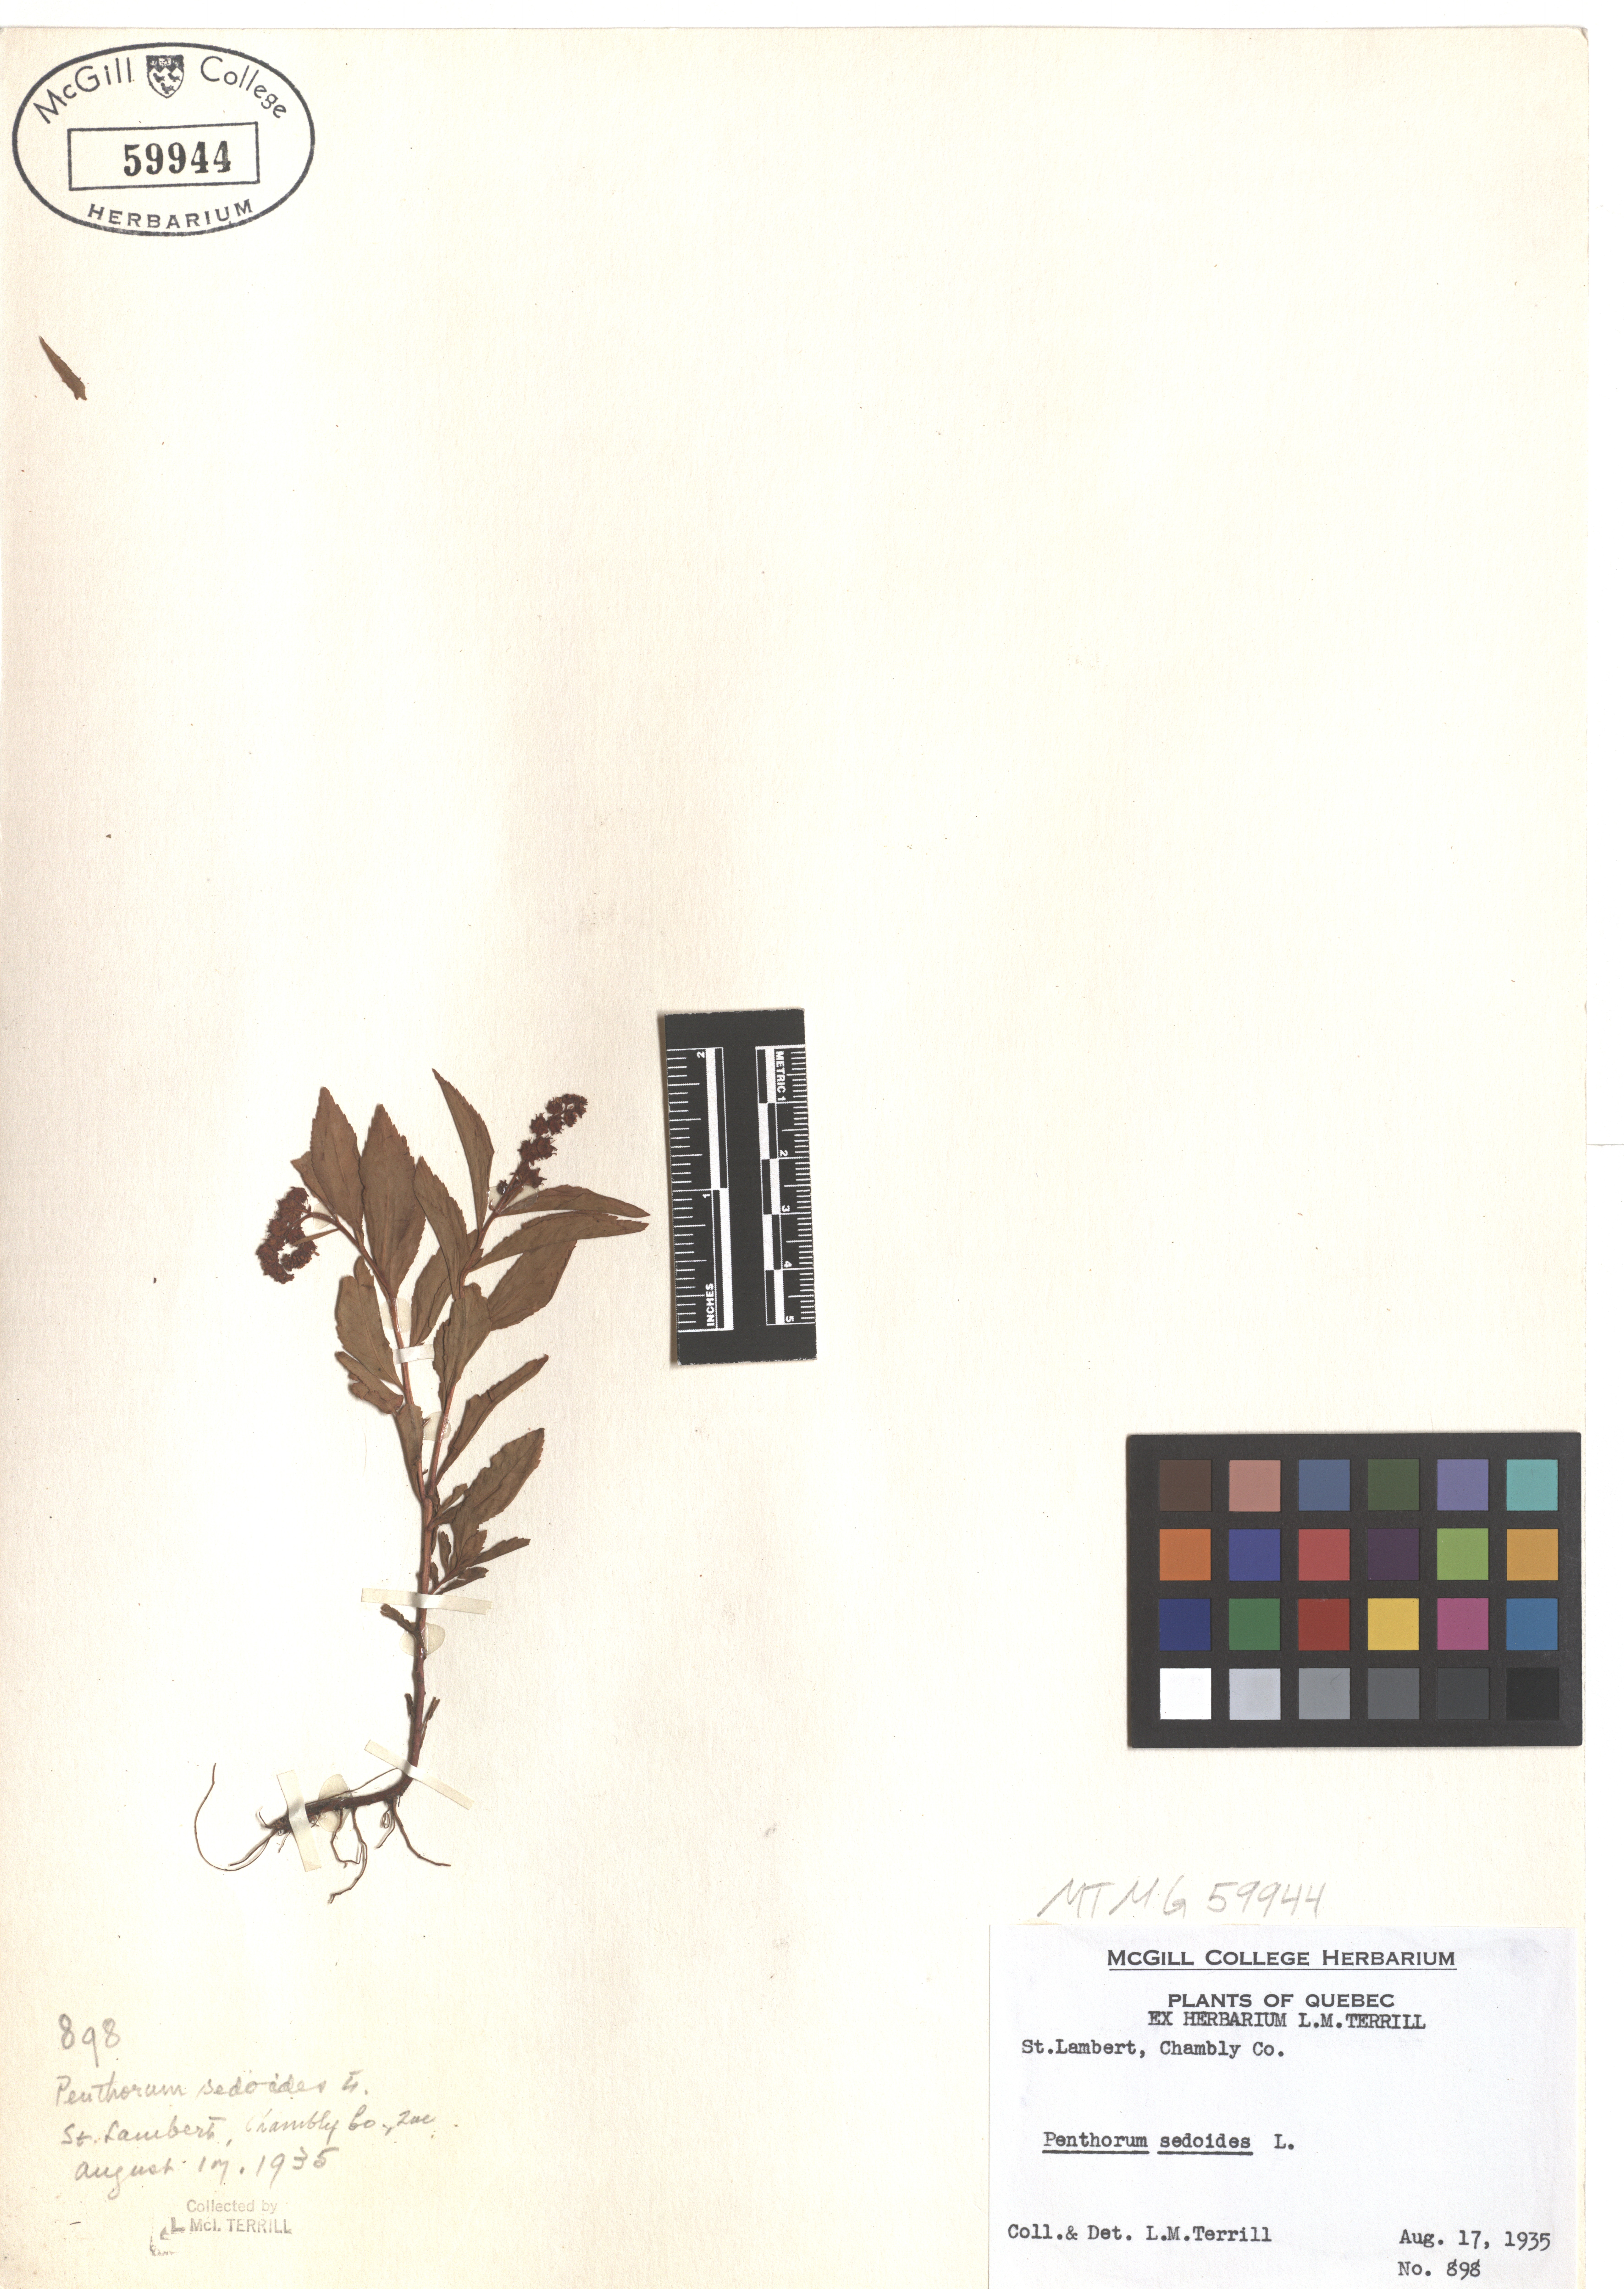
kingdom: Plantae
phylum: Tracheophyta
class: Magnoliopsida
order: Saxifragales
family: Penthoraceae
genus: Penthorum
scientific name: Penthorum sedoides
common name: Ditch stonecrop
